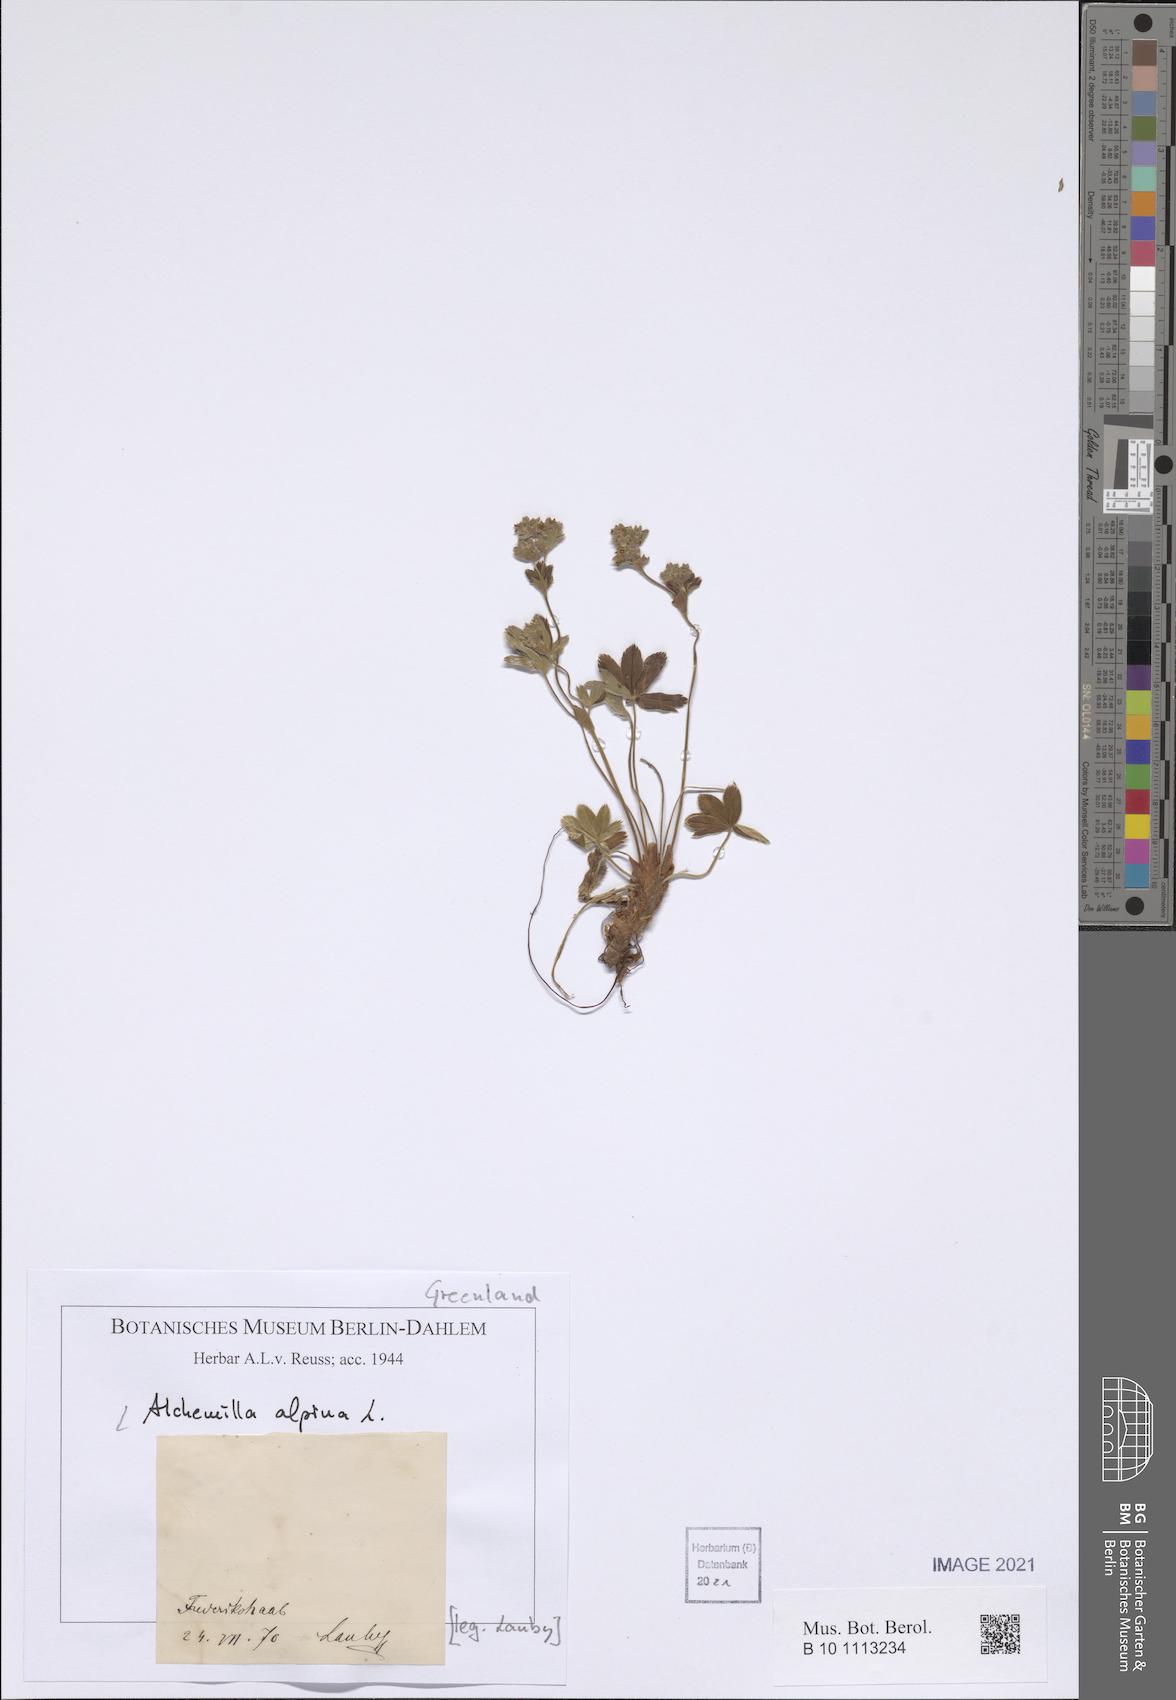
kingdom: Plantae
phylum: Tracheophyta
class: Magnoliopsida
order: Rosales
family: Rosaceae
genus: Alchemilla
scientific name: Alchemilla alpina
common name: Alpine lady's-mantle
